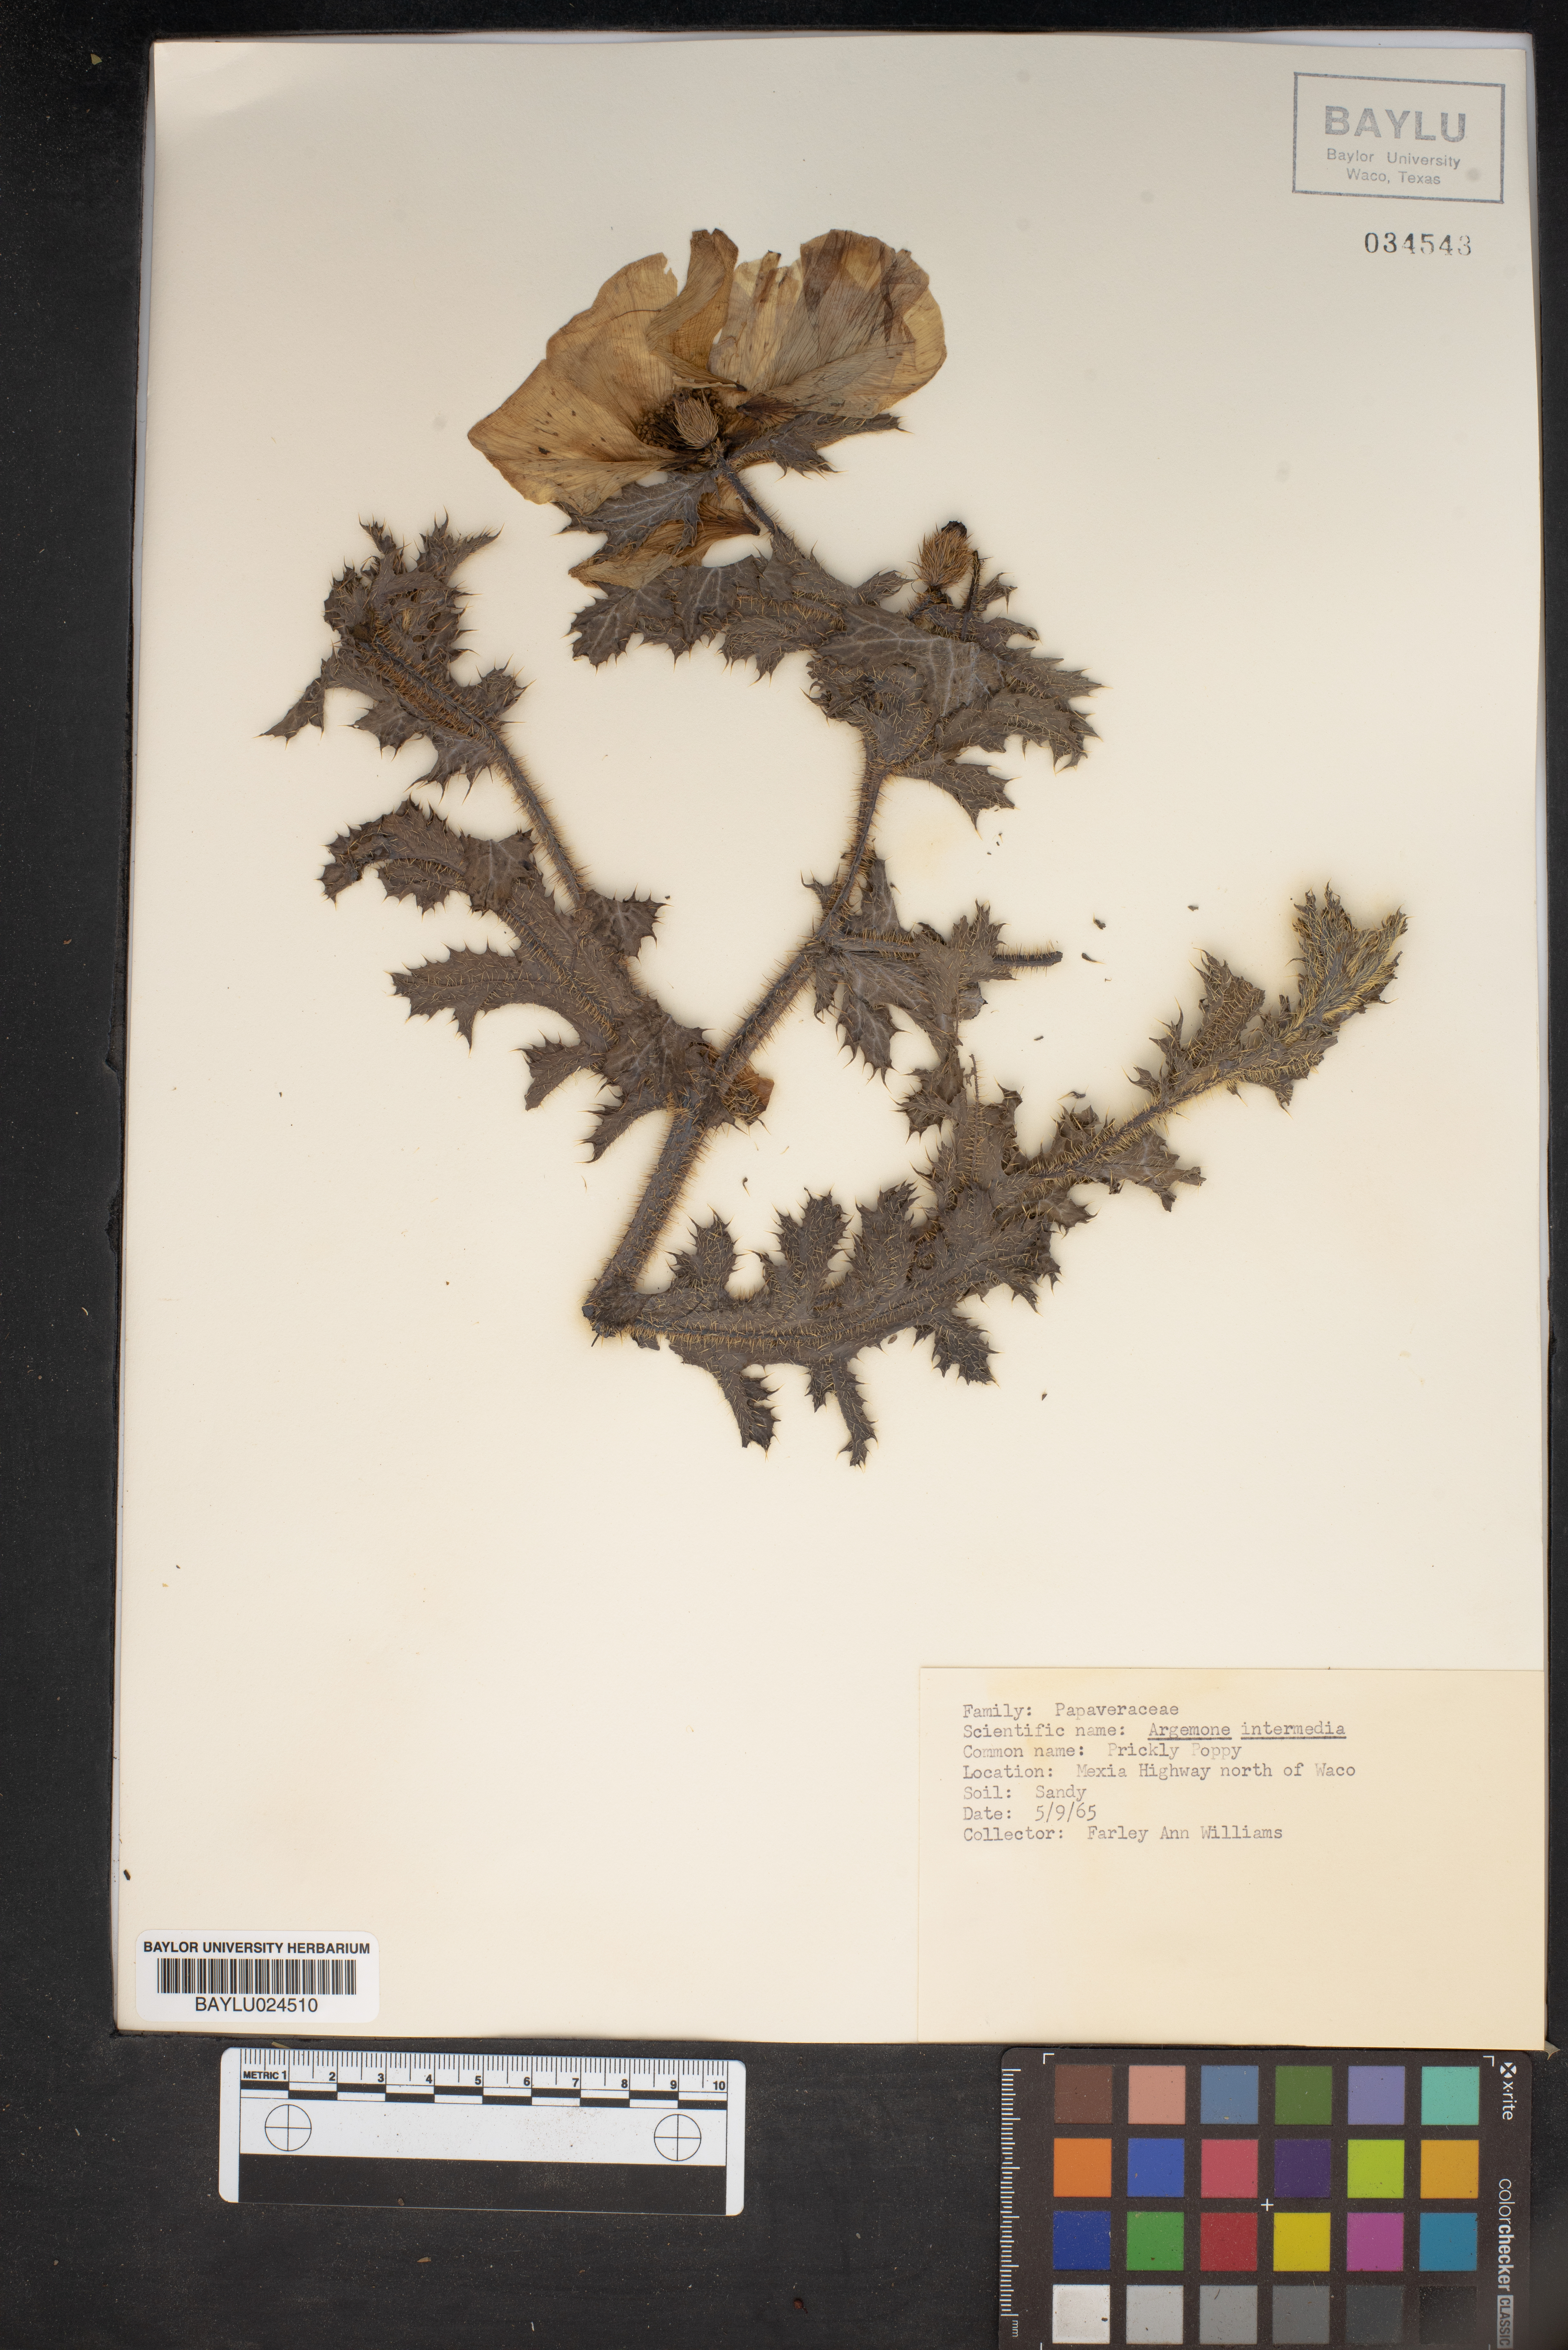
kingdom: Plantae
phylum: Tracheophyta
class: Magnoliopsida
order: Ranunculales
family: Papaveraceae
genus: Argemone
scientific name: Argemone intermedia
